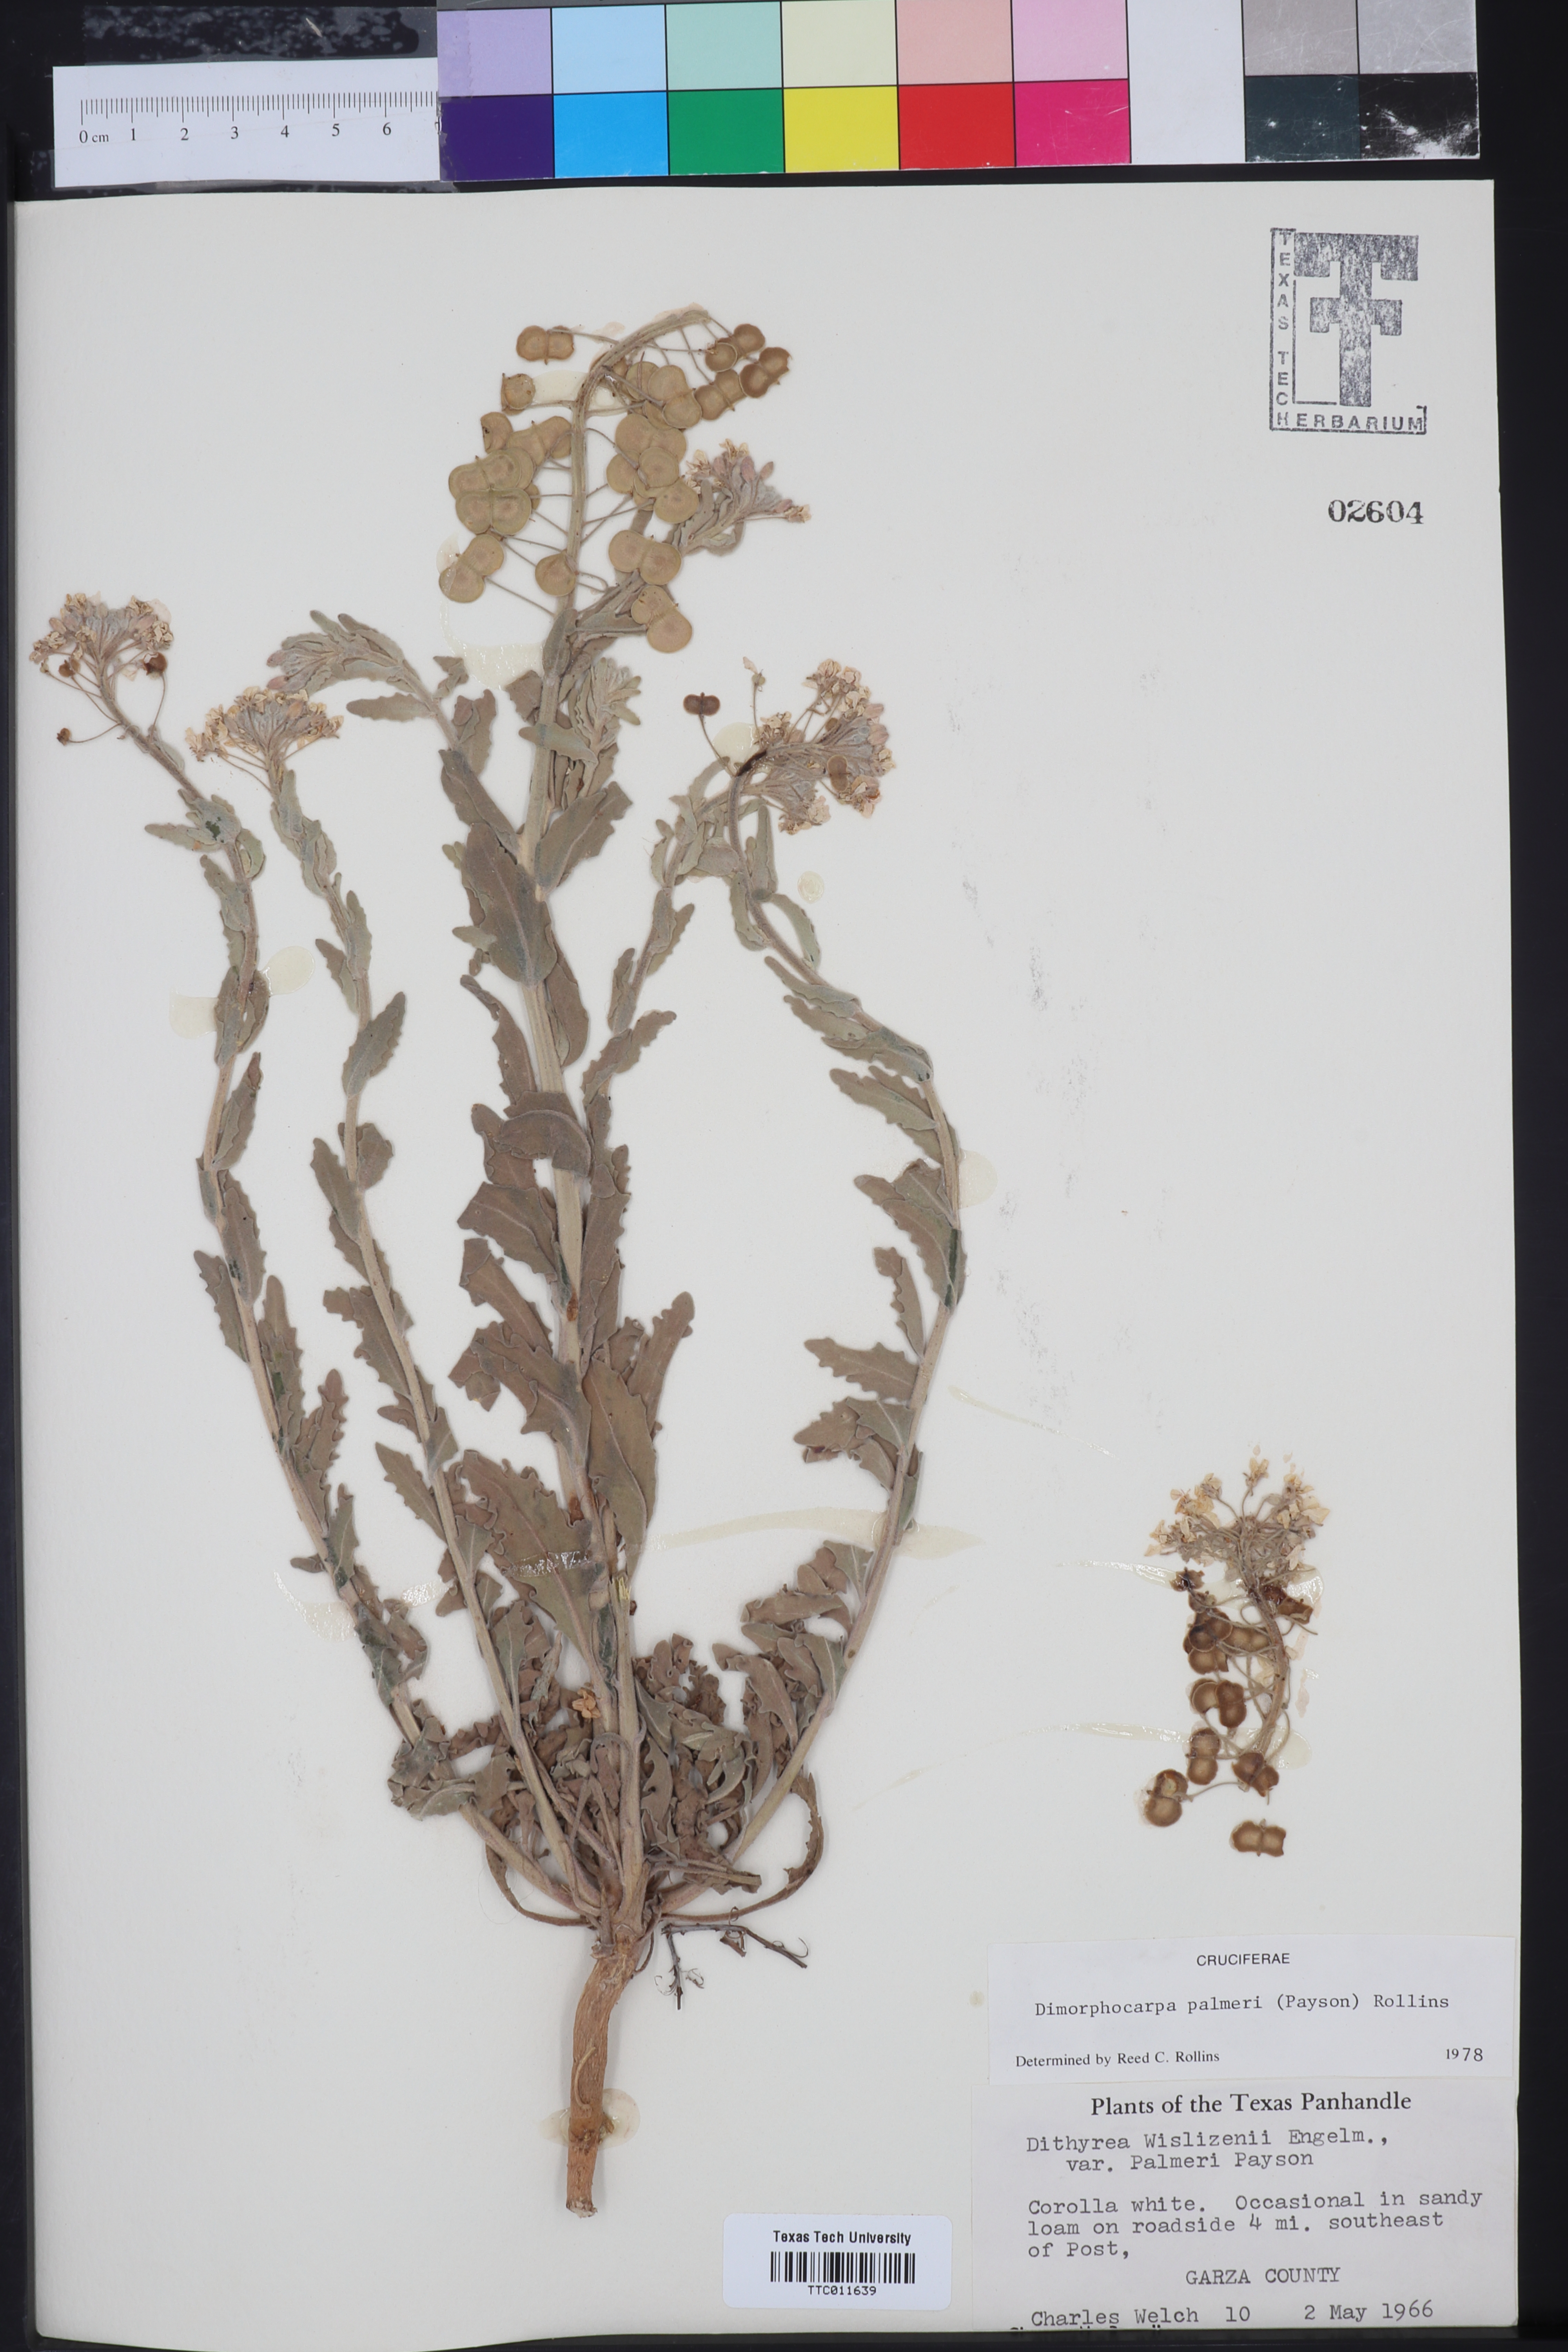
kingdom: Plantae
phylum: Tracheophyta
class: Magnoliopsida
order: Brassicales
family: Brassicaceae
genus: Dimorphocarpa
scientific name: Dimorphocarpa candicans
